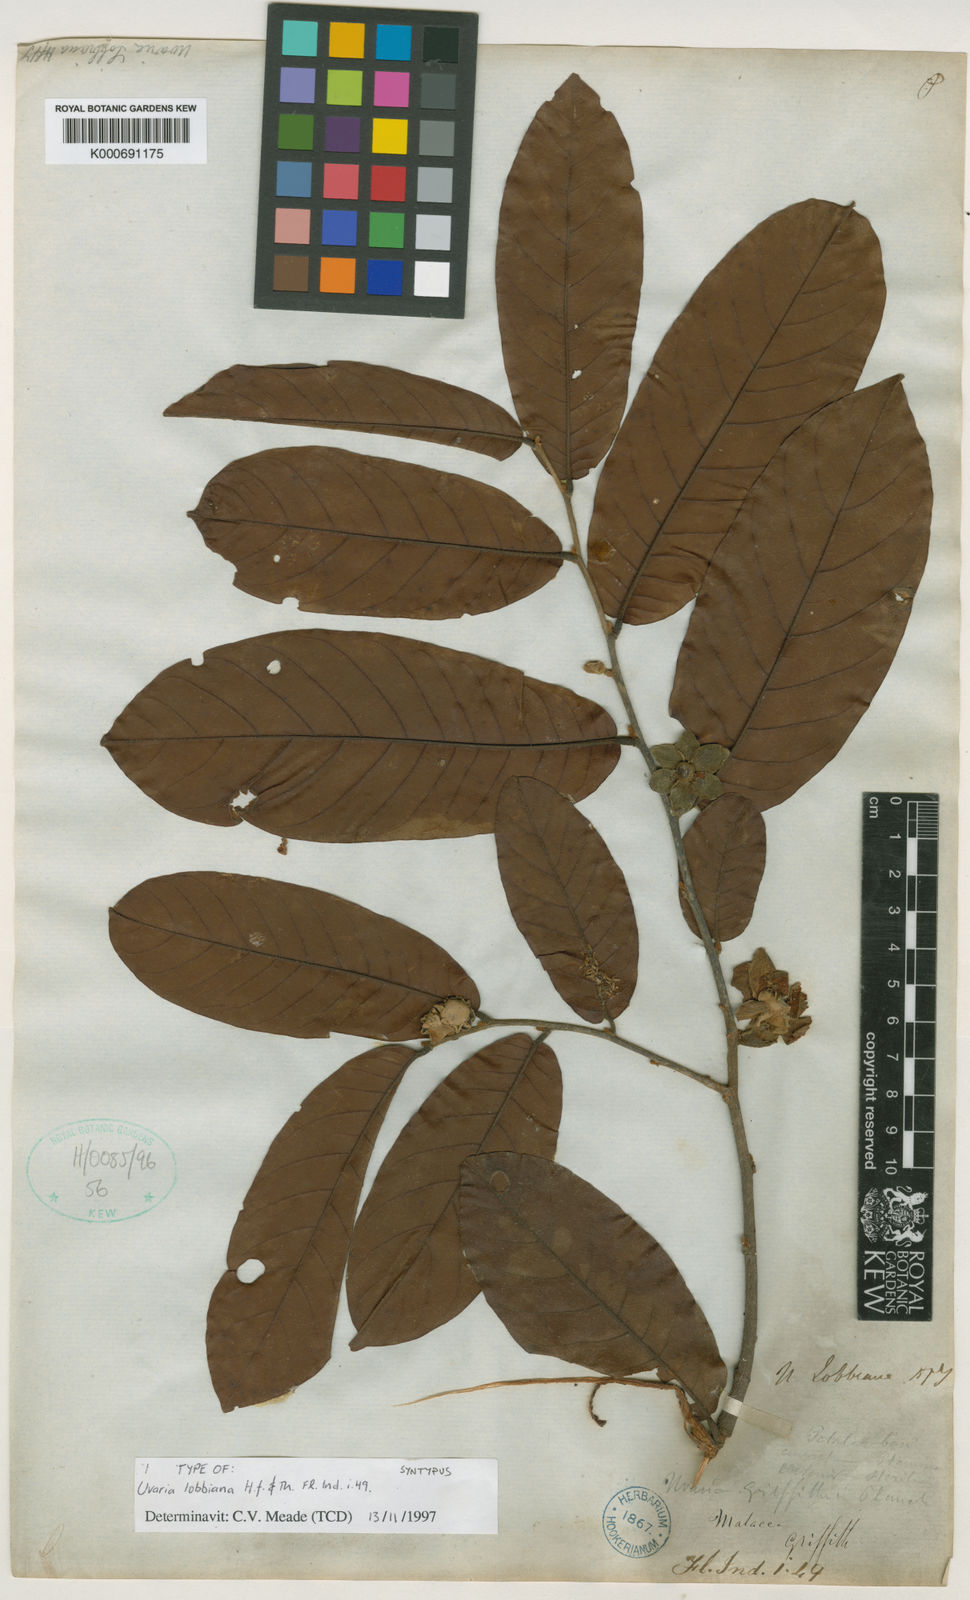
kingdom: Plantae
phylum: Tracheophyta
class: Magnoliopsida
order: Magnoliales
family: Annonaceae
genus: Uvaria
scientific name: Uvaria lobbiana
